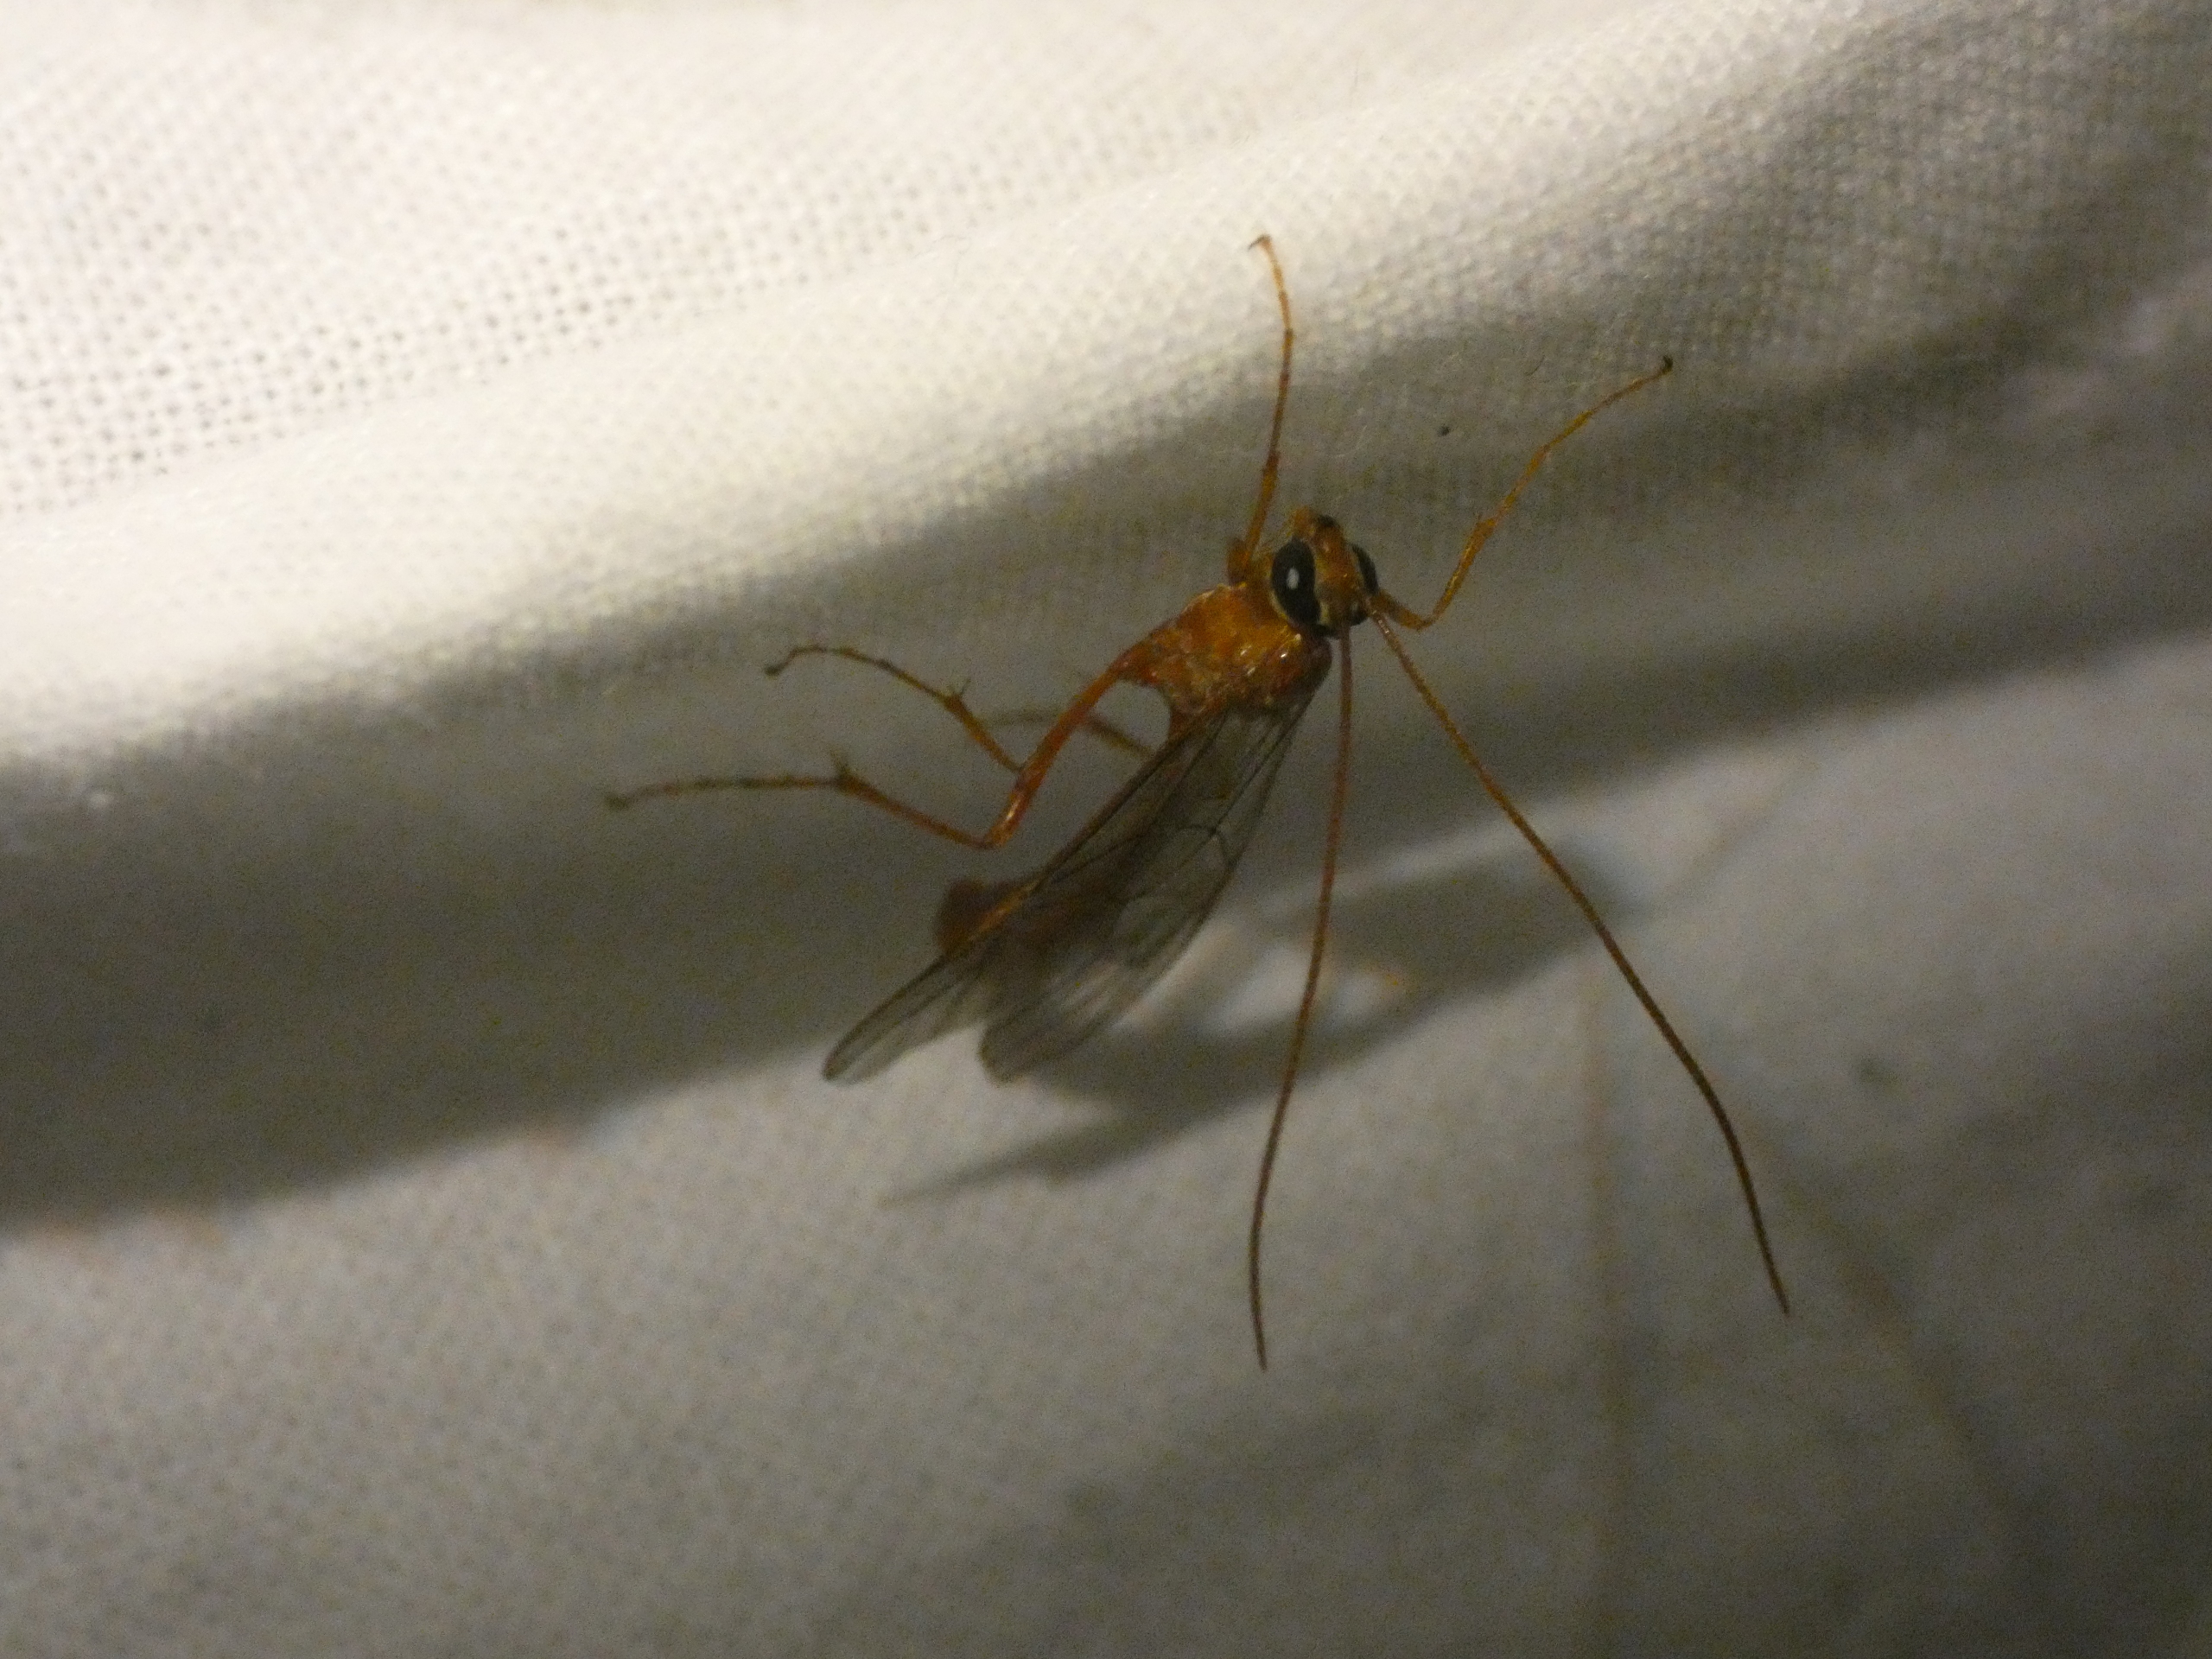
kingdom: Animalia
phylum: Arthropoda
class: Insecta
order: Hymenoptera
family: Ichneumonidae
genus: Ophion
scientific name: Ophion
